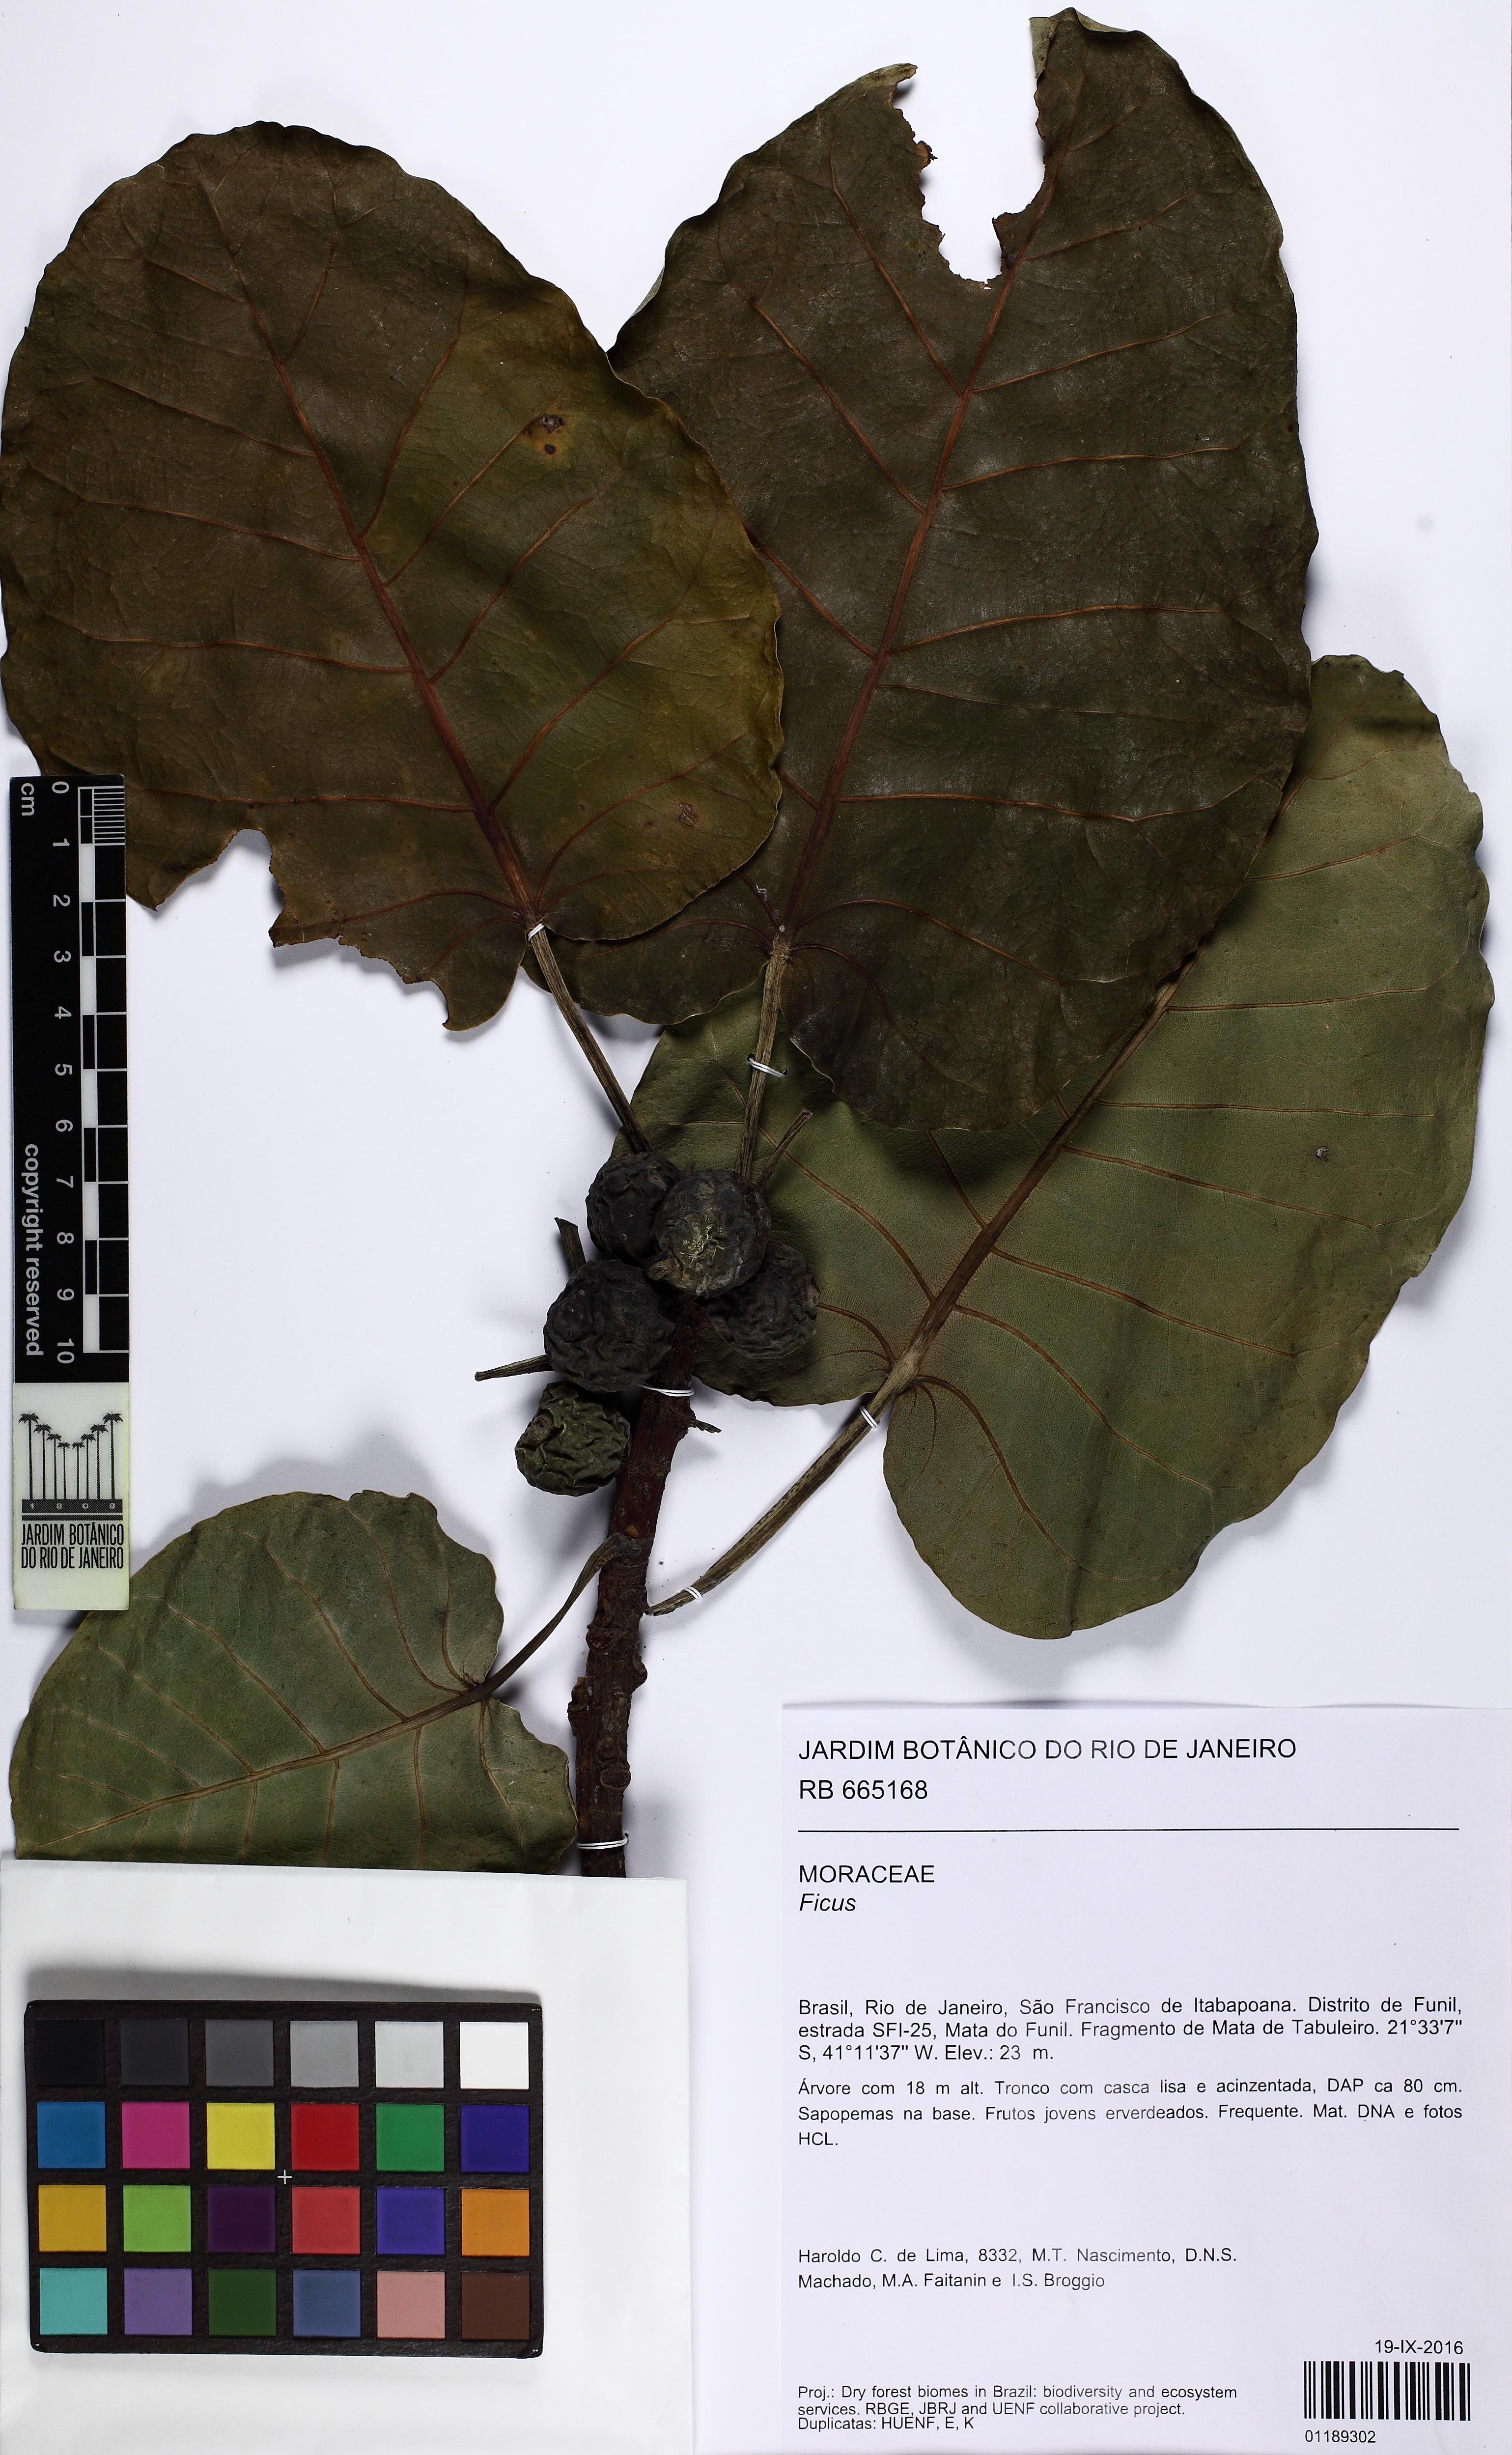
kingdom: Plantae
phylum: Tracheophyta
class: Magnoliopsida
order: Rosales
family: Moraceae
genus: Ficus
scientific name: Ficus nymphaeifolia
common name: Fig
